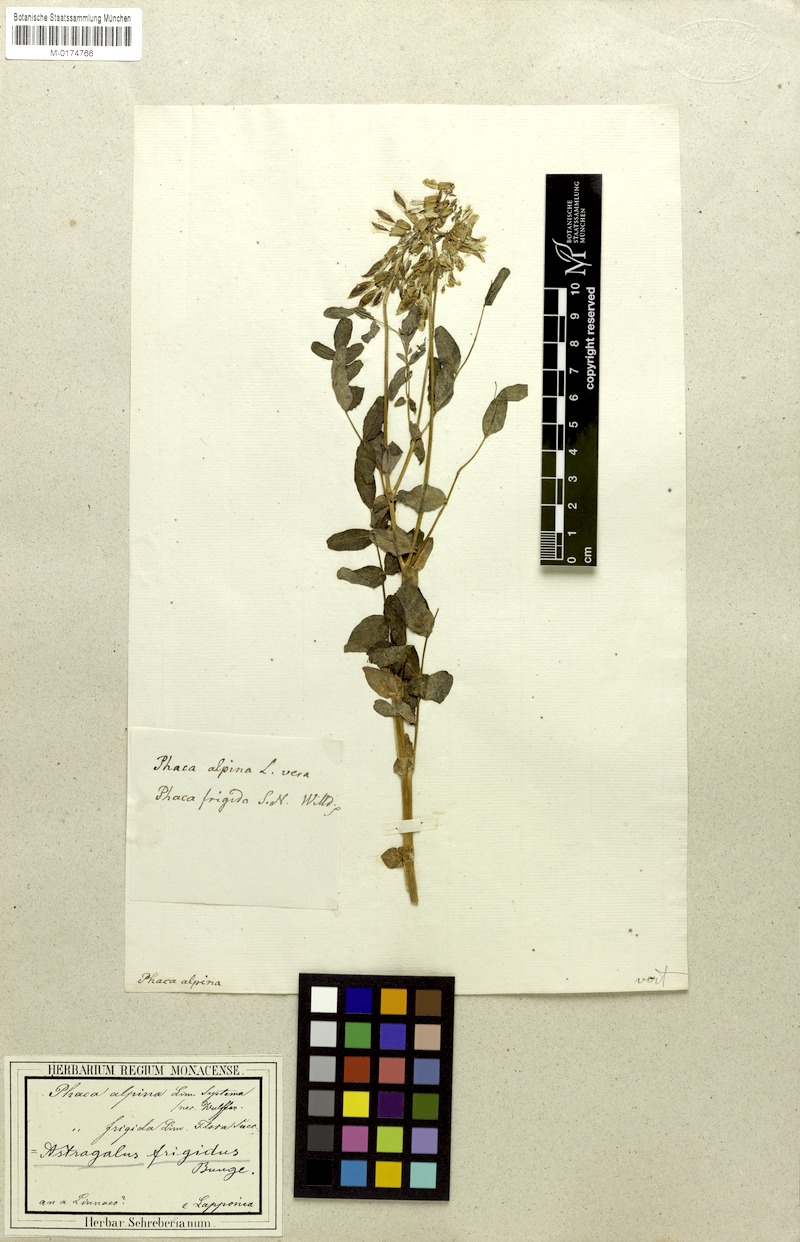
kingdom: Plantae
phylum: Tracheophyta
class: Magnoliopsida
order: Fabales
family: Fabaceae
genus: Astragalus
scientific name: Astragalus frigidus
